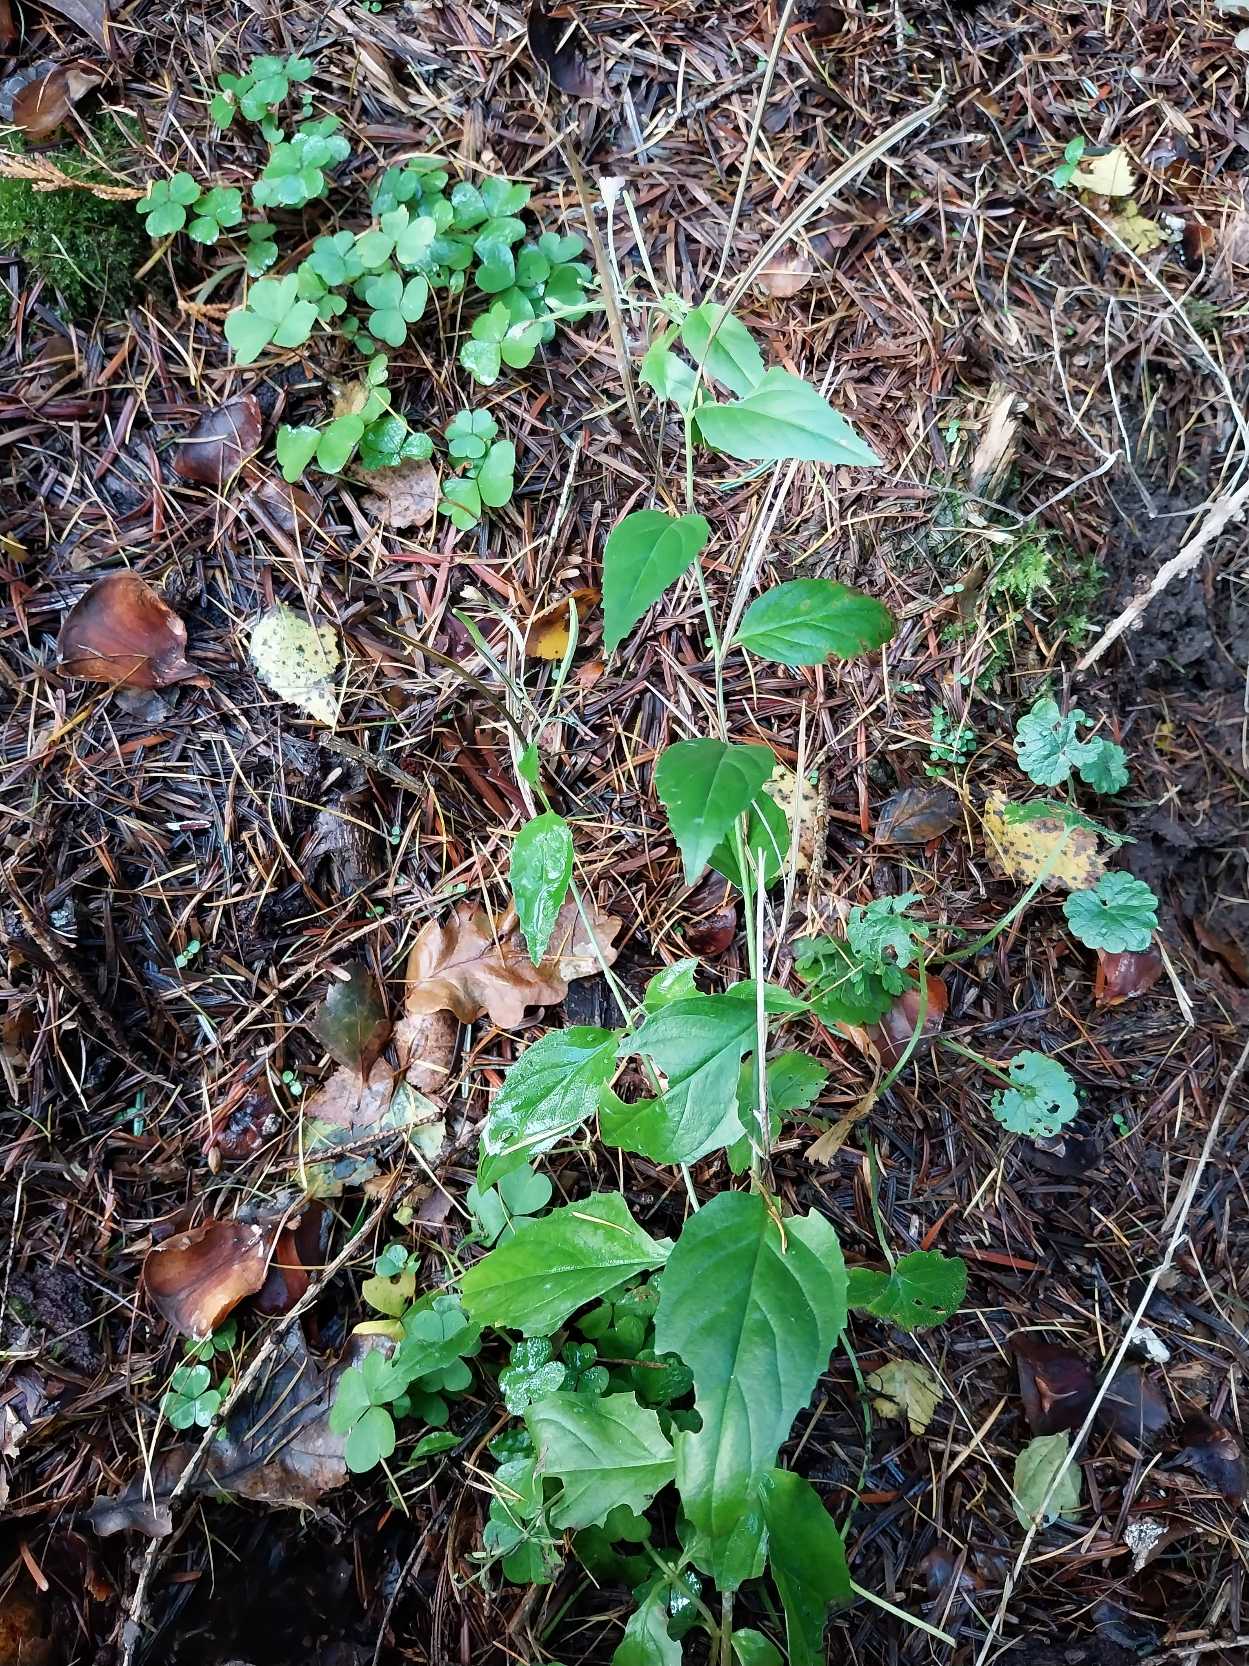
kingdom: Plantae
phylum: Tracheophyta
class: Magnoliopsida
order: Myrtales
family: Onagraceae
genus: Epilobium
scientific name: Epilobium montanum
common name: Glat dueurt
